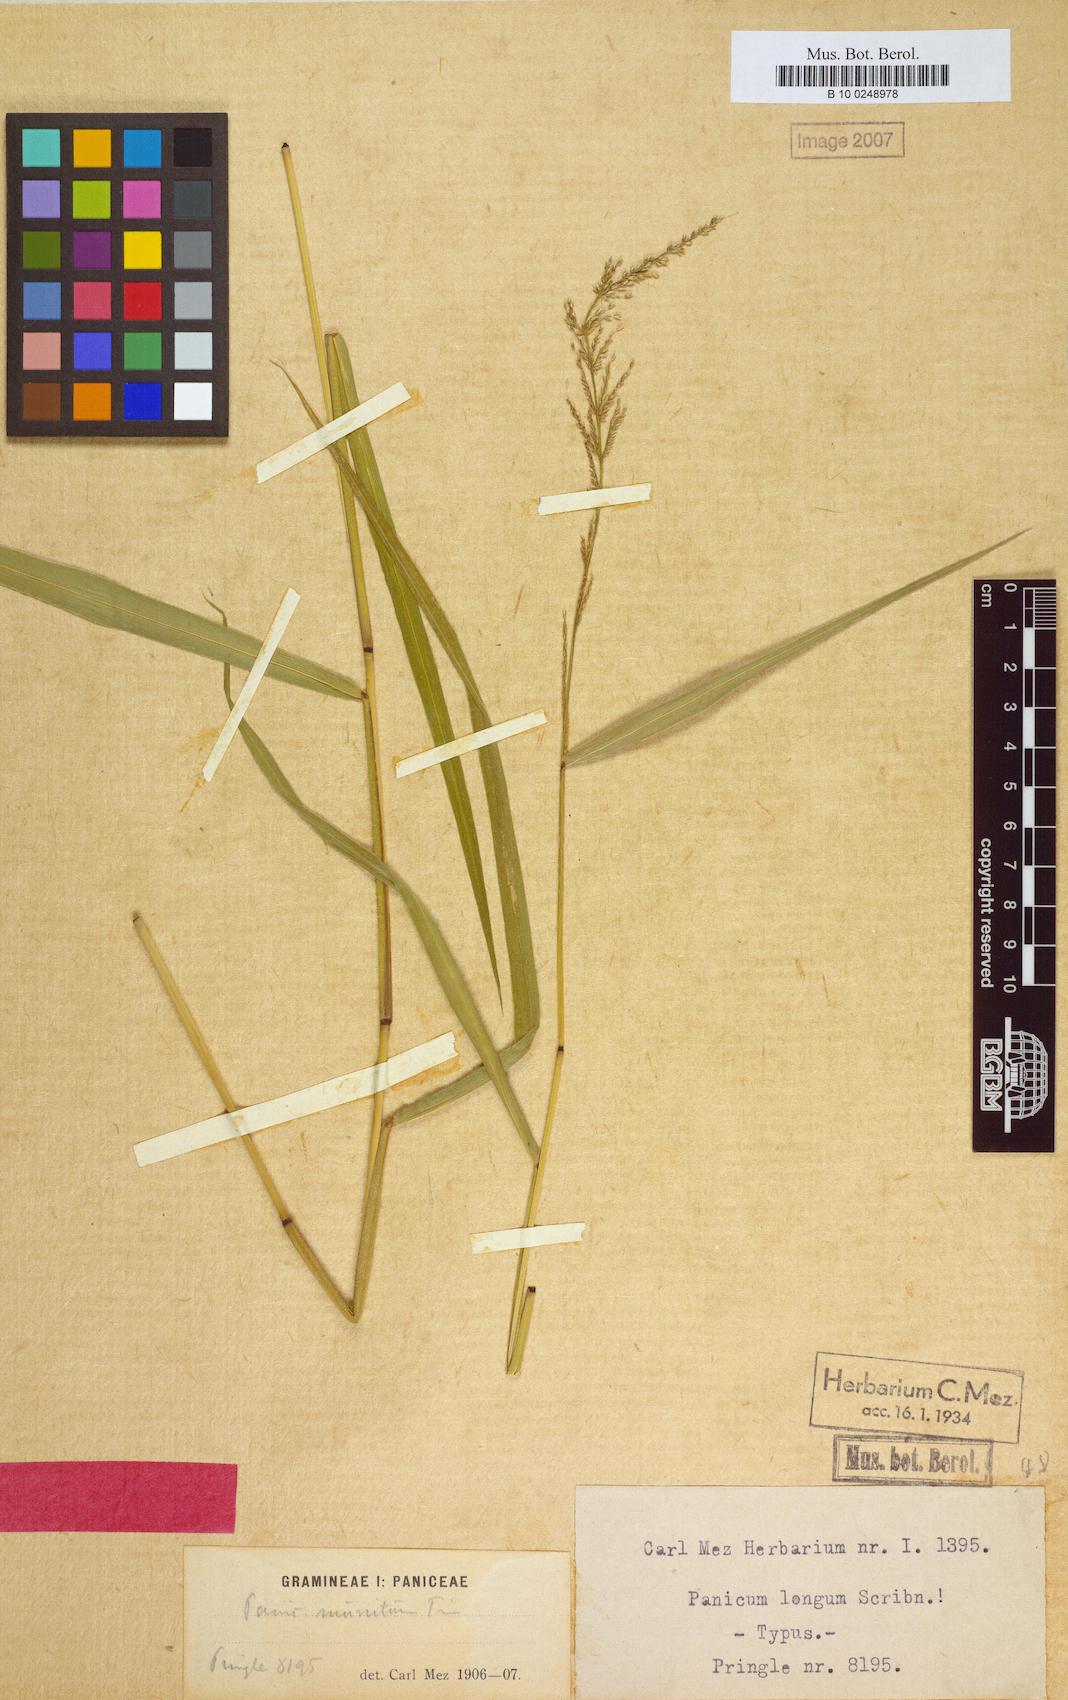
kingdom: Plantae
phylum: Tracheophyta
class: Liliopsida
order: Poales
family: Poaceae
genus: Hymenachne
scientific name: Hymenachne longa
